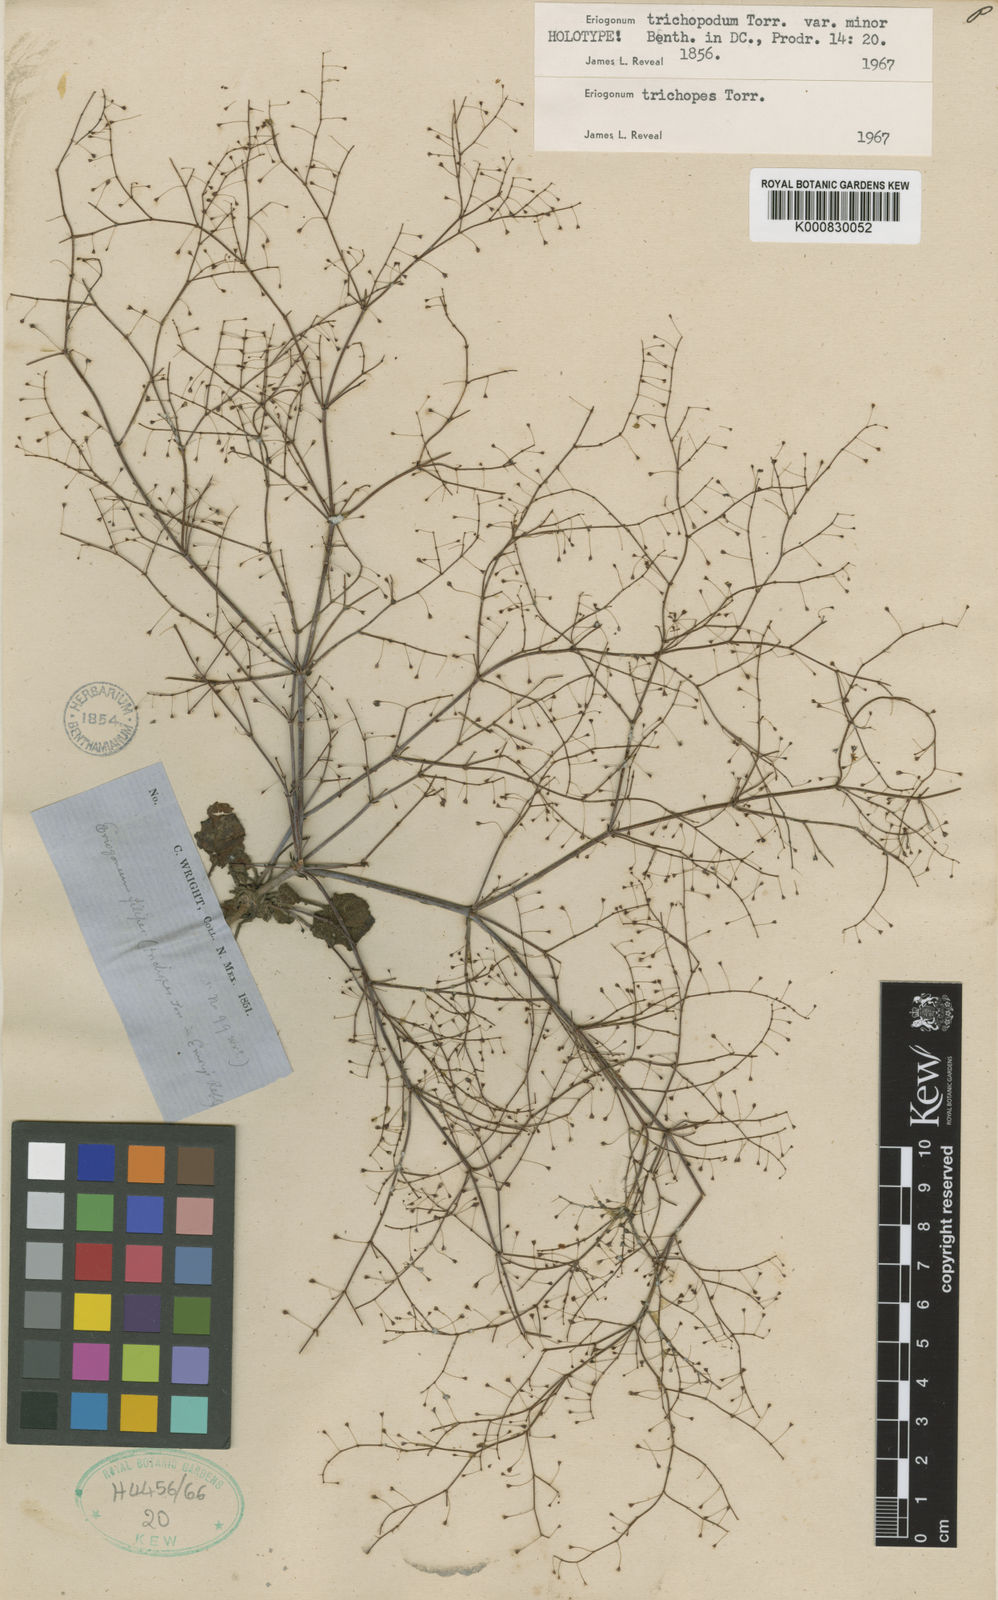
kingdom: Plantae
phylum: Tracheophyta
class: Magnoliopsida
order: Caryophyllales
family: Polygonaceae
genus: Eriogonum
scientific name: Eriogonum trichopes
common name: Little desert trumpet
